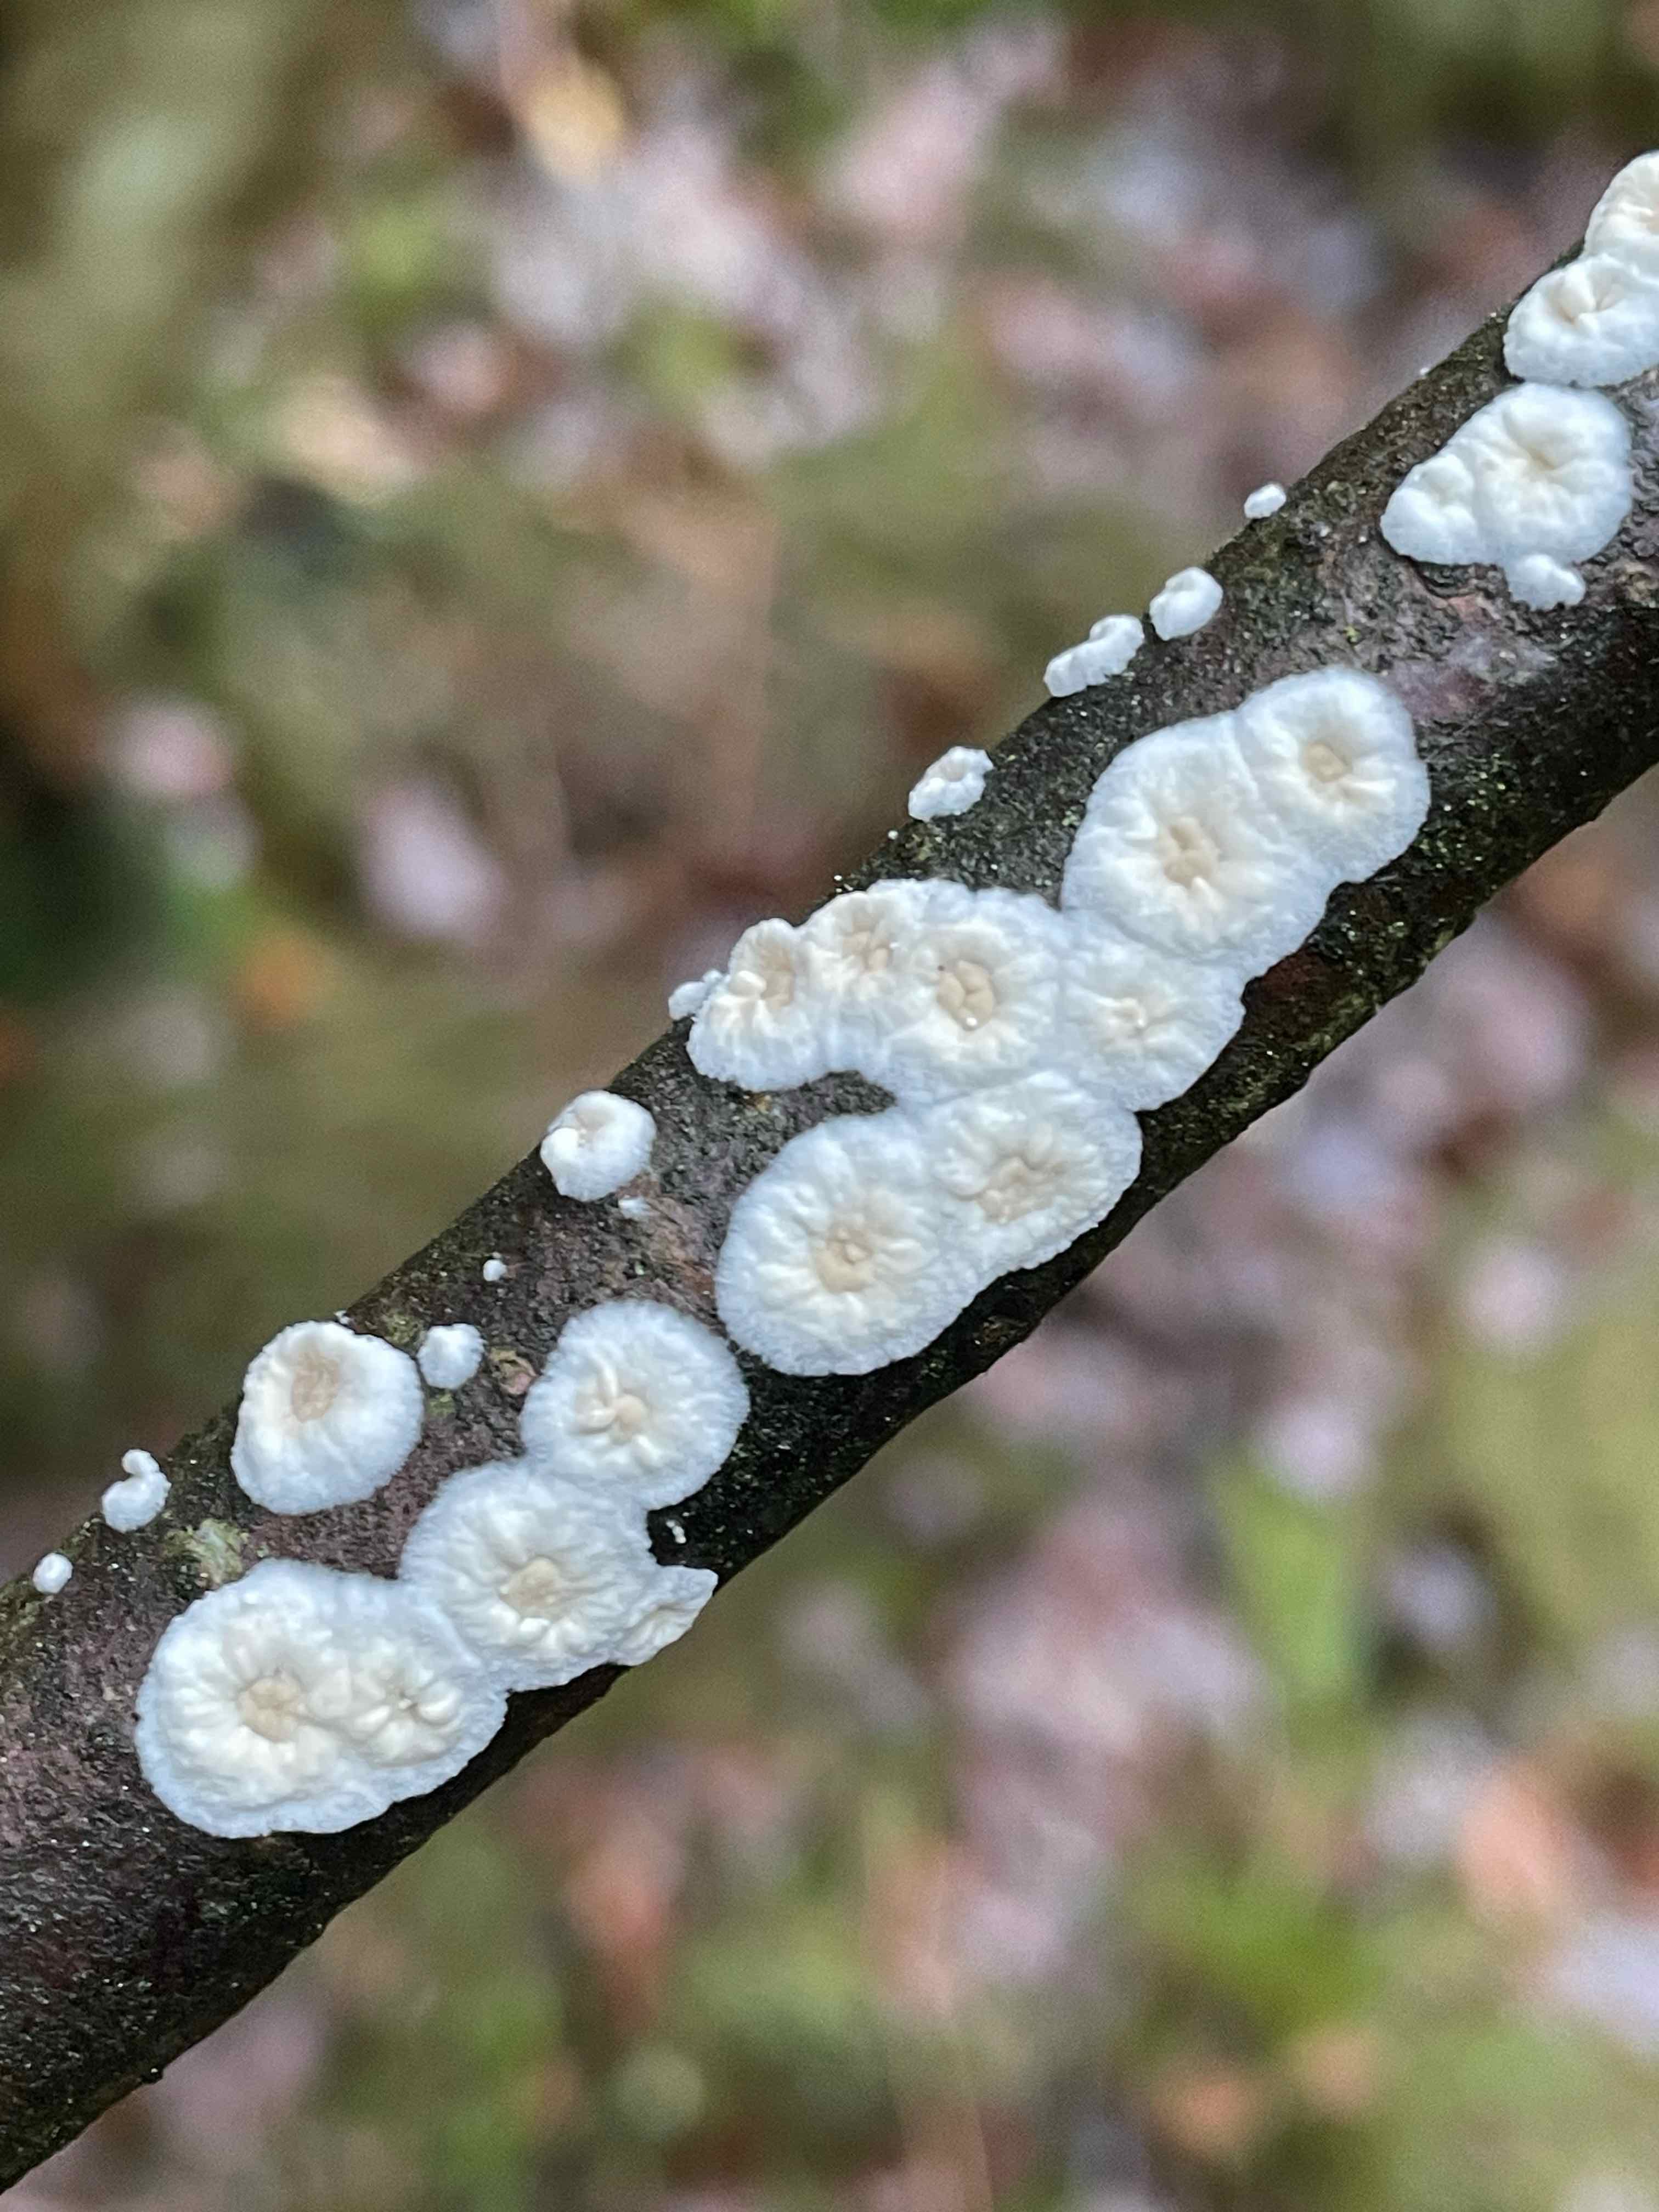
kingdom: Fungi
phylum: Basidiomycota
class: Agaricomycetes
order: Polyporales
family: Irpicaceae
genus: Byssomerulius
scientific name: Byssomerulius corium
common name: læder-åresvamp
